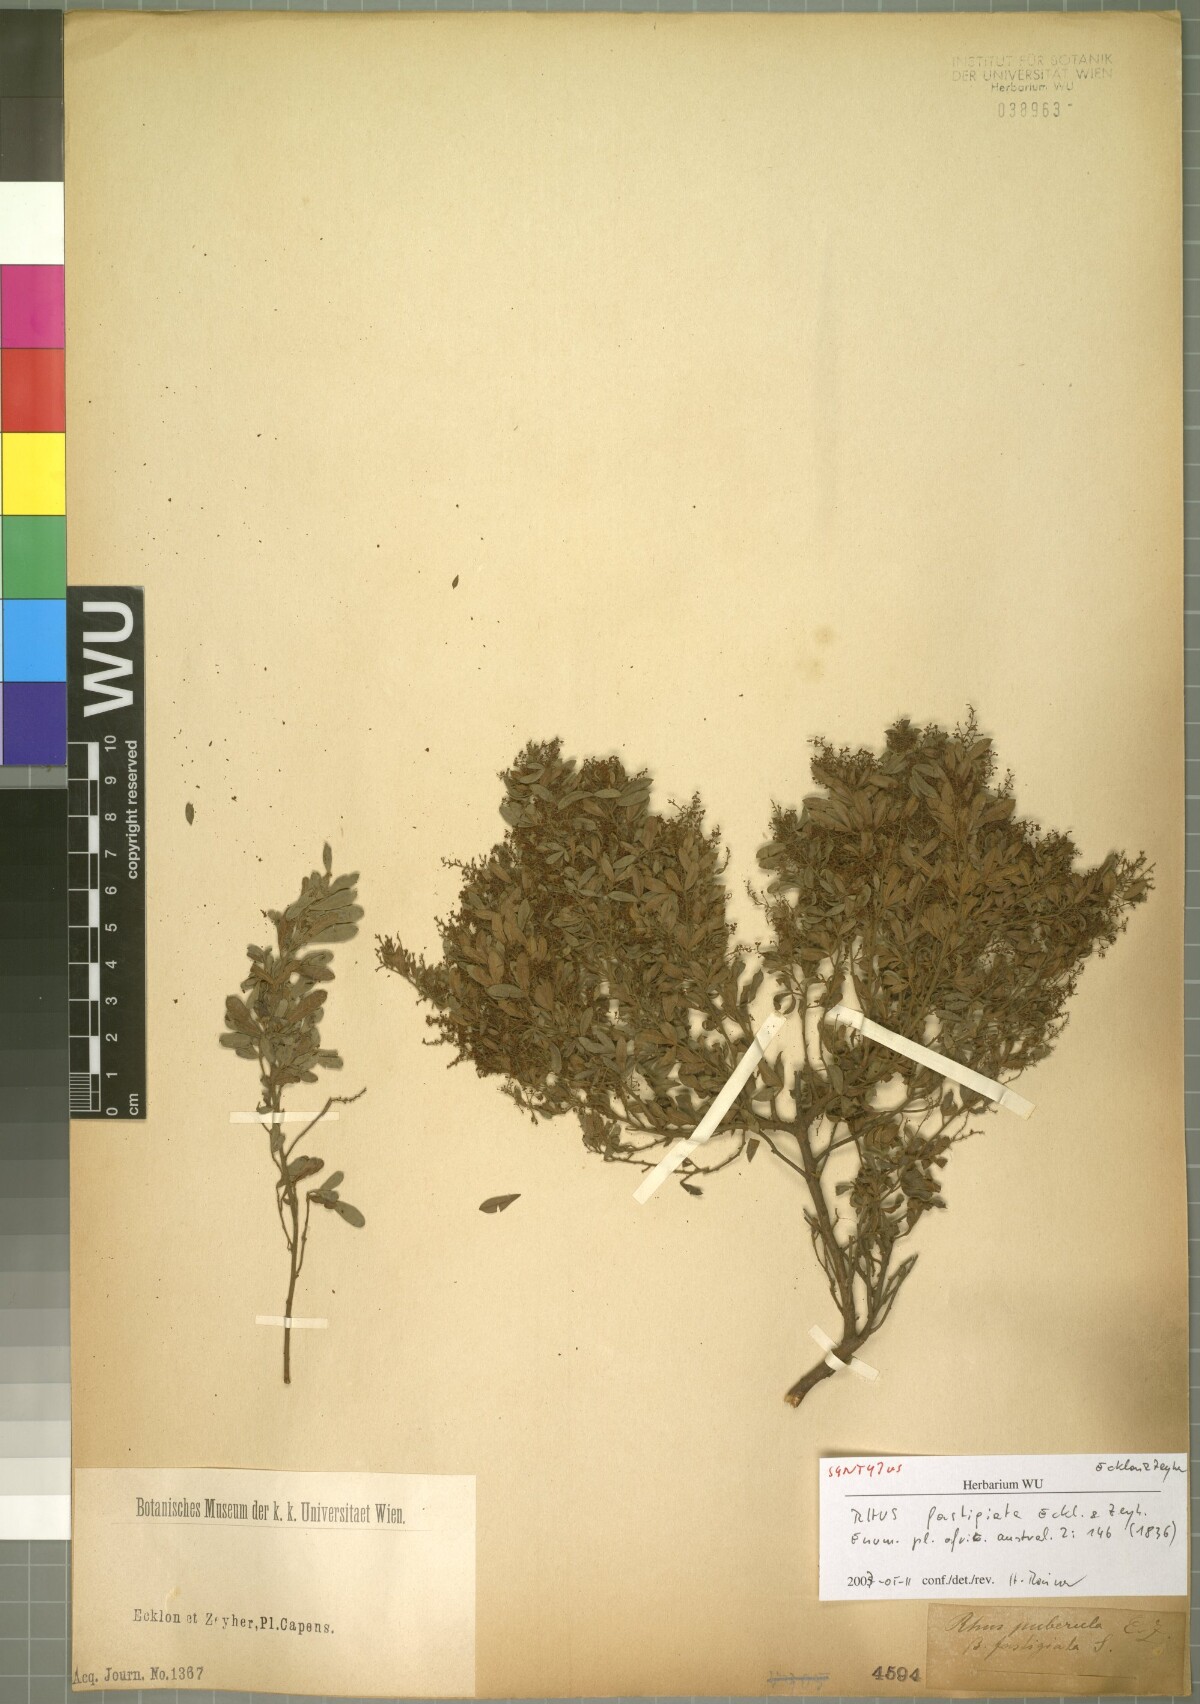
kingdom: Plantae
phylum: Tracheophyta
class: Magnoliopsida
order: Sapindales
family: Anacardiaceae
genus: Searsia
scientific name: Searsia fastigiata
